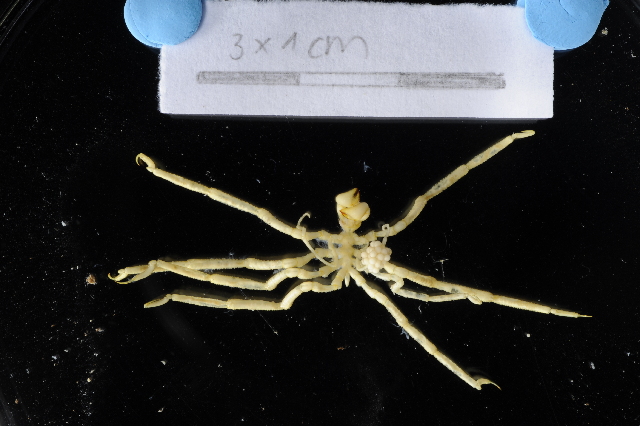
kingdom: Animalia
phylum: Arthropoda
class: Pycnogonida
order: Pantopoda
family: Callipallenidae
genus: Austropallene
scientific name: Austropallene cornigera
